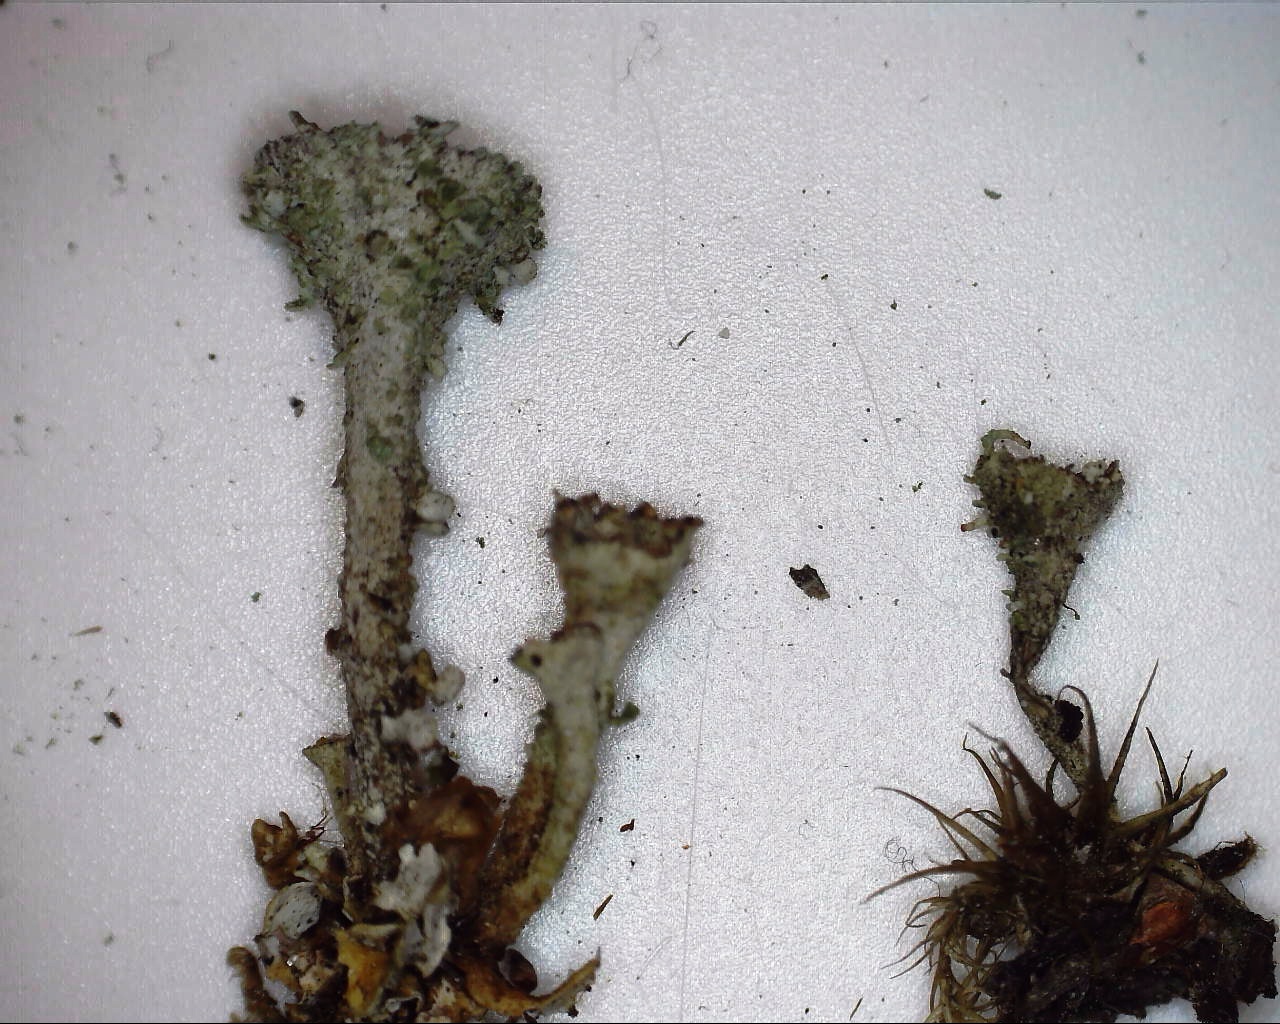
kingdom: Fungi
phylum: Ascomycota
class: Lecanoromycetes
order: Lecanorales
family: Cladoniaceae
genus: Cladonia
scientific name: Cladonia pyxidata
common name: tragt-bægerlav
